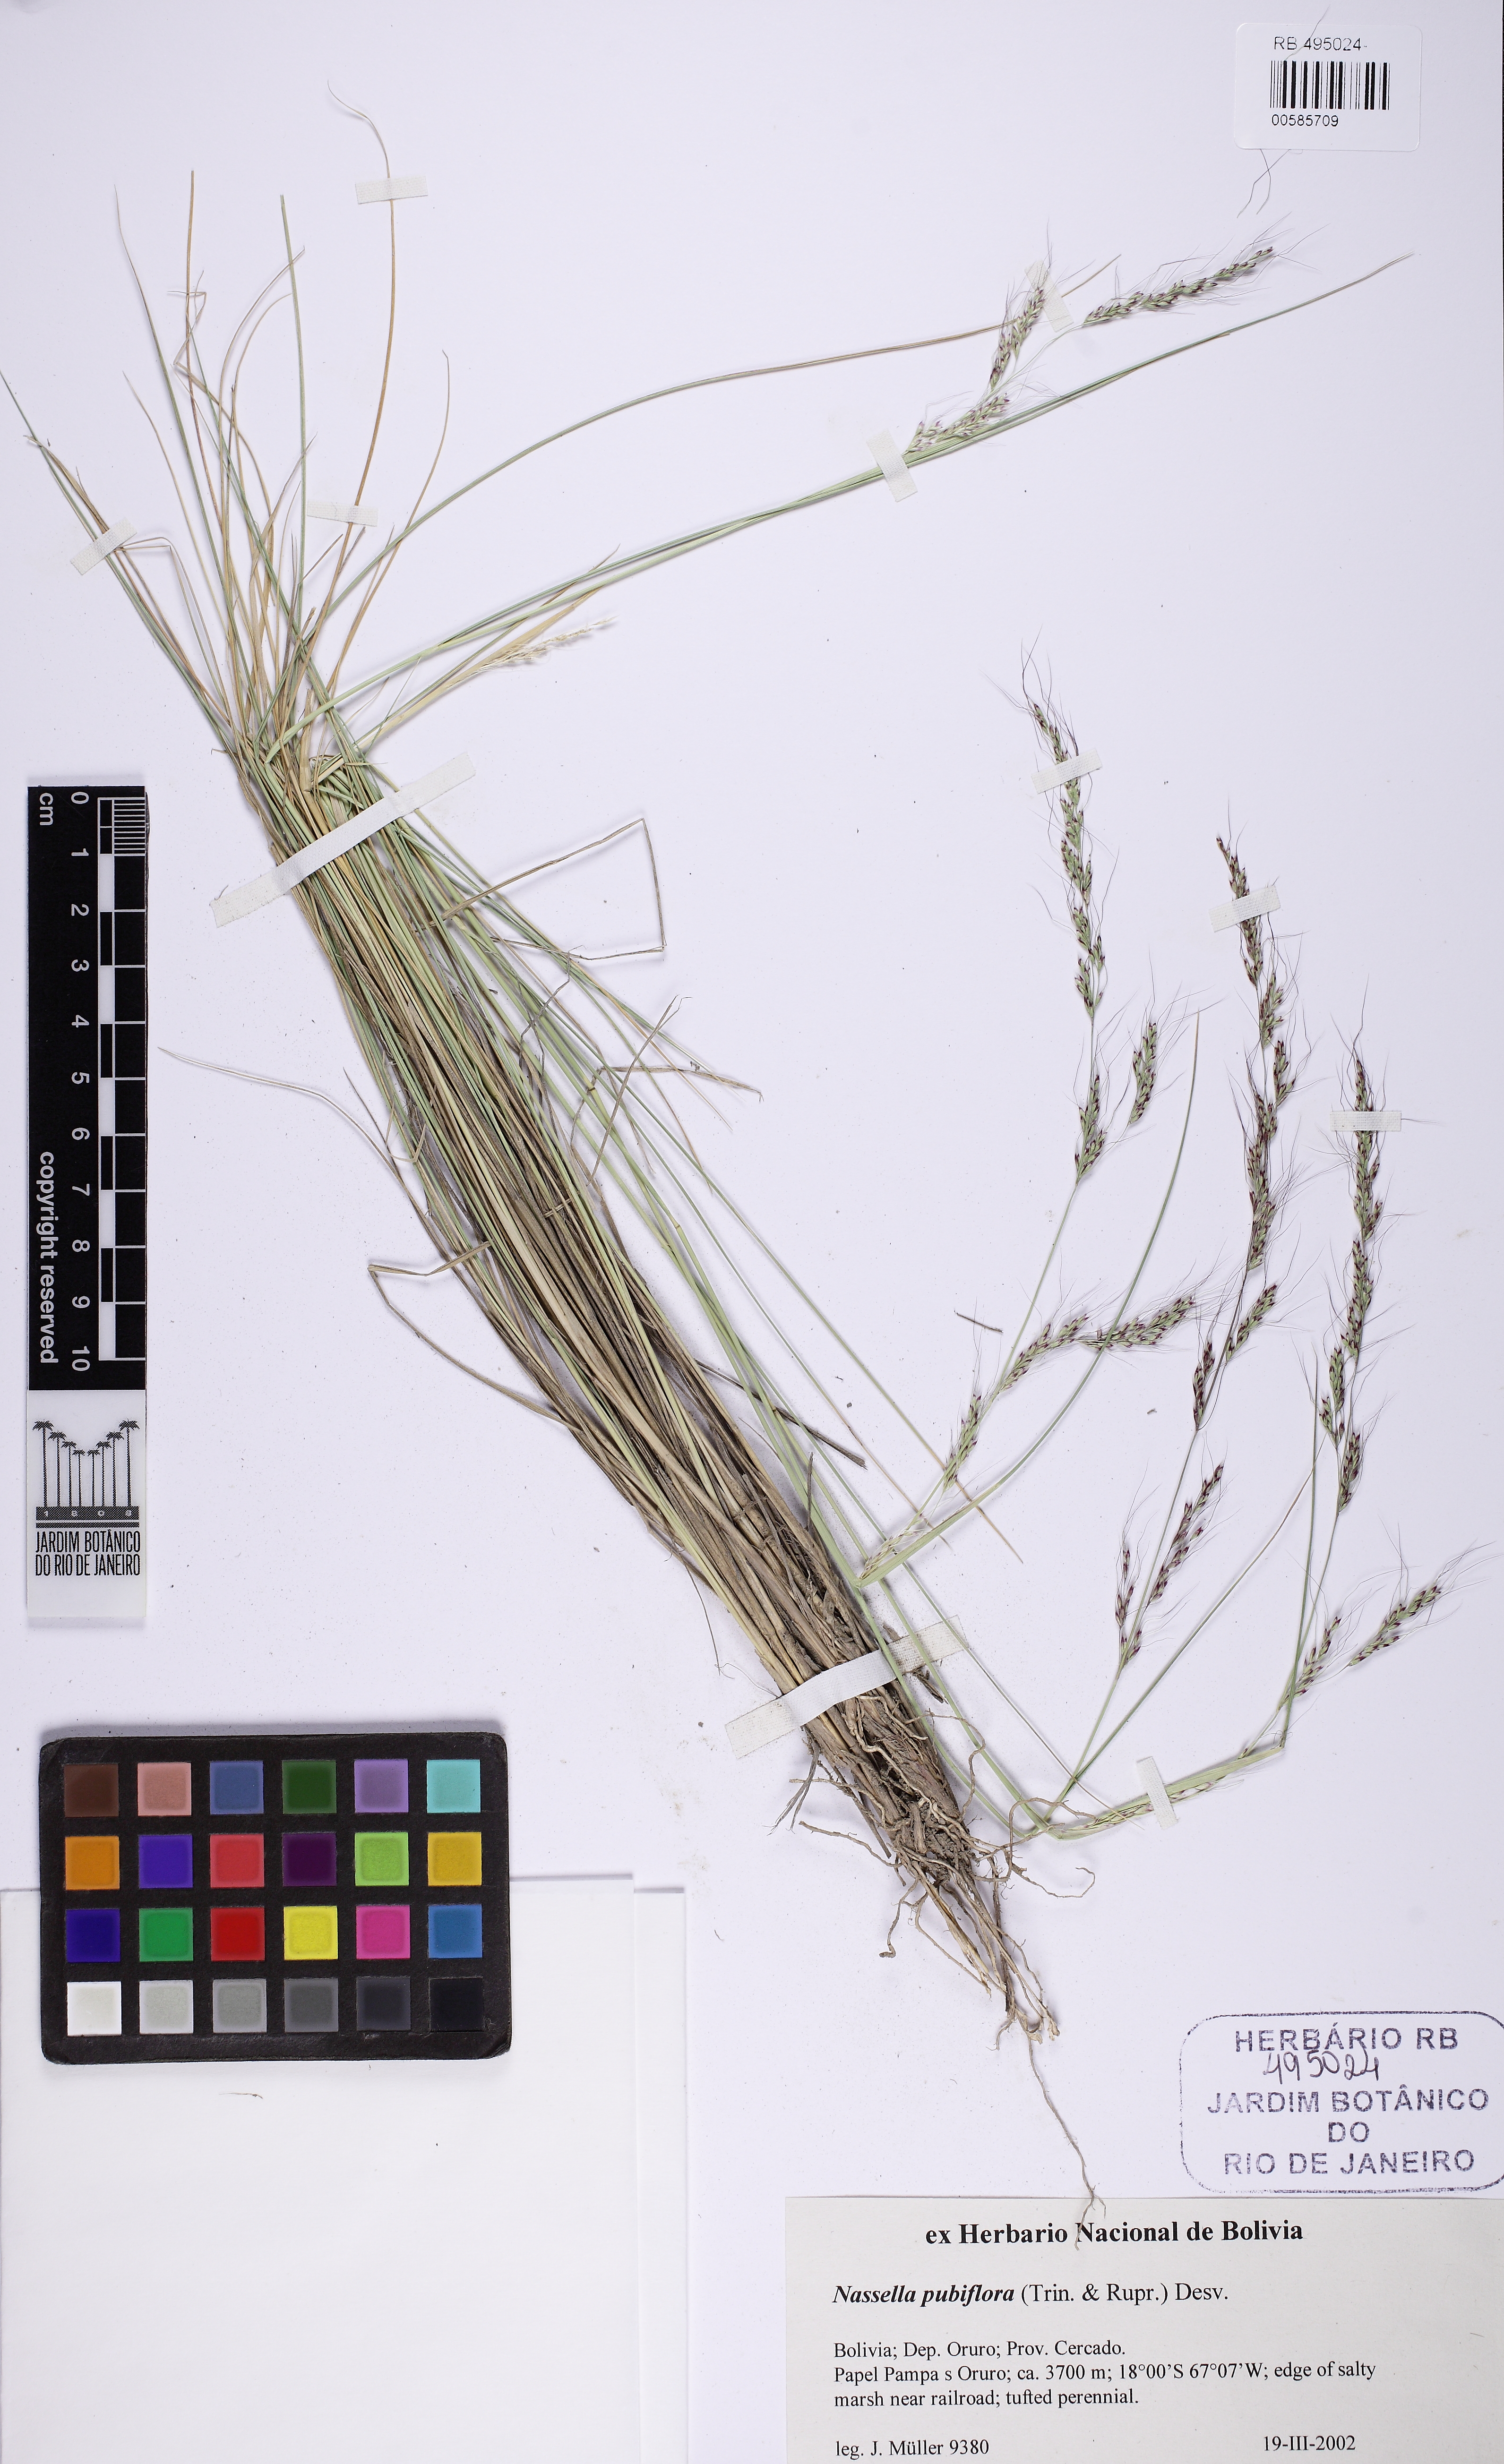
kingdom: Plantae
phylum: Tracheophyta
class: Liliopsida
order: Poales
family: Poaceae
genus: Nassella
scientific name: Nassella pubiflora
